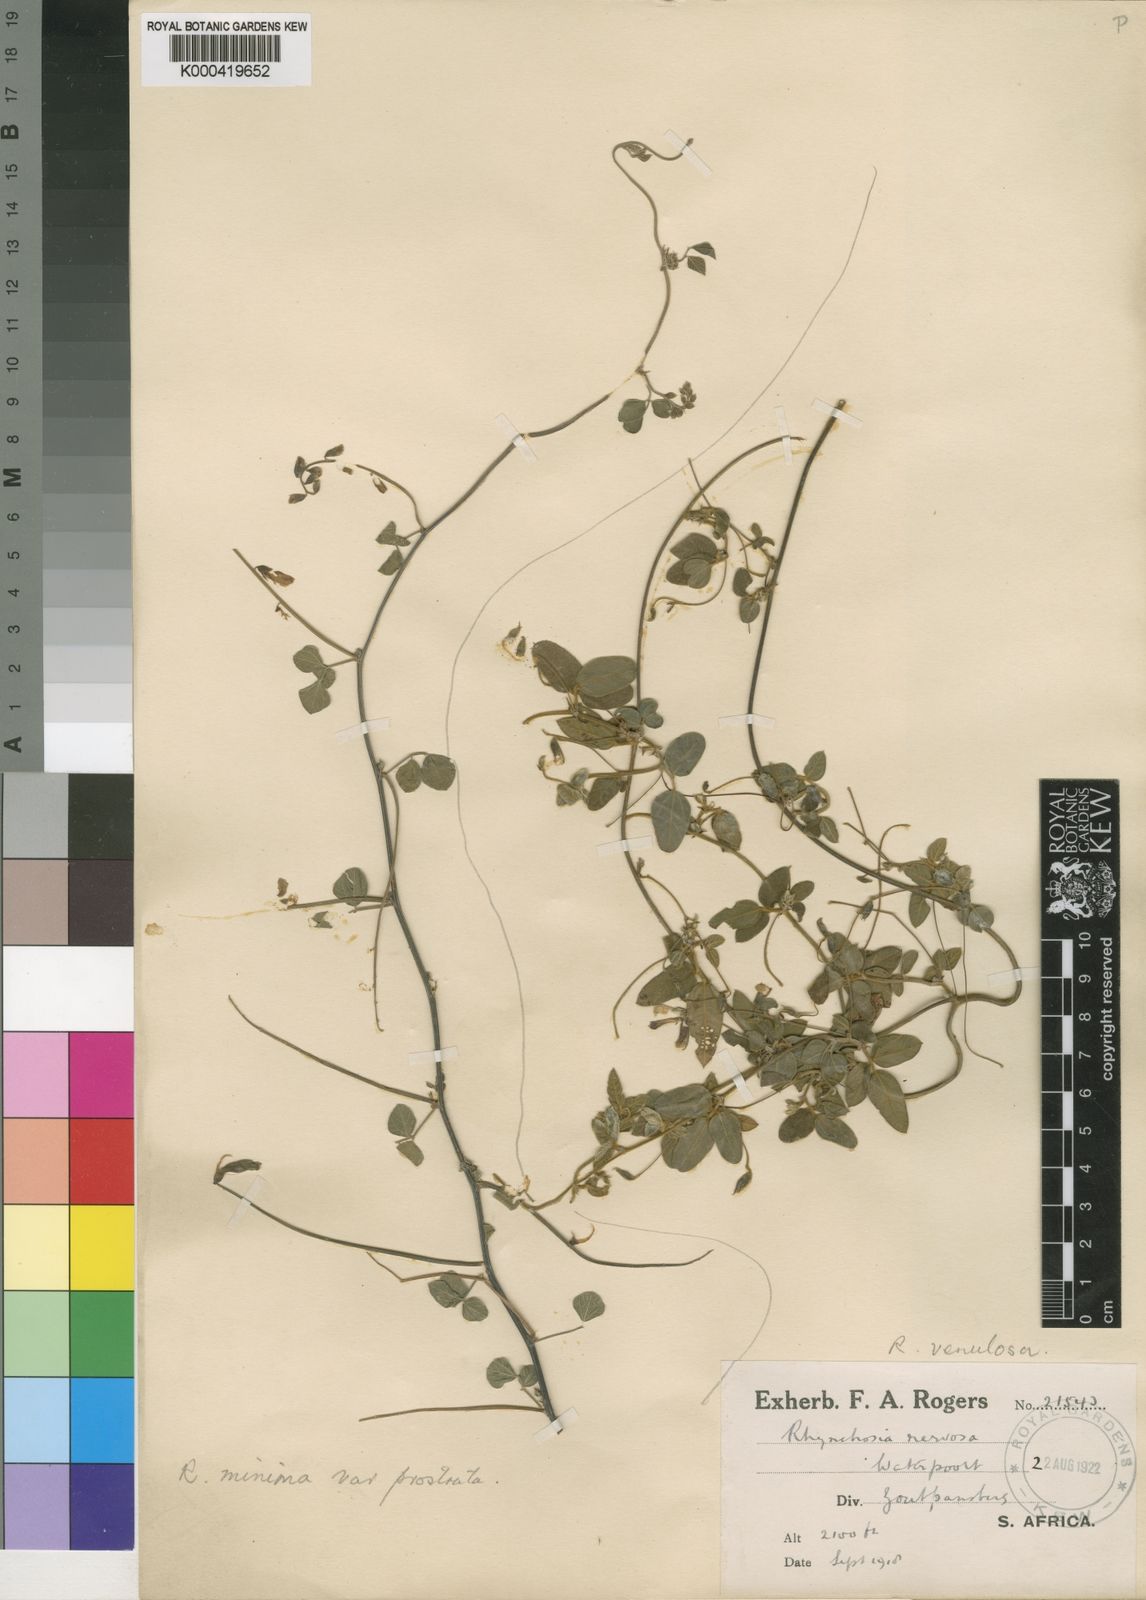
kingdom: Plantae
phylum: Tracheophyta
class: Magnoliopsida
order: Fabales
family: Fabaceae
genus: Rhynchosia
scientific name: Rhynchosia totta
